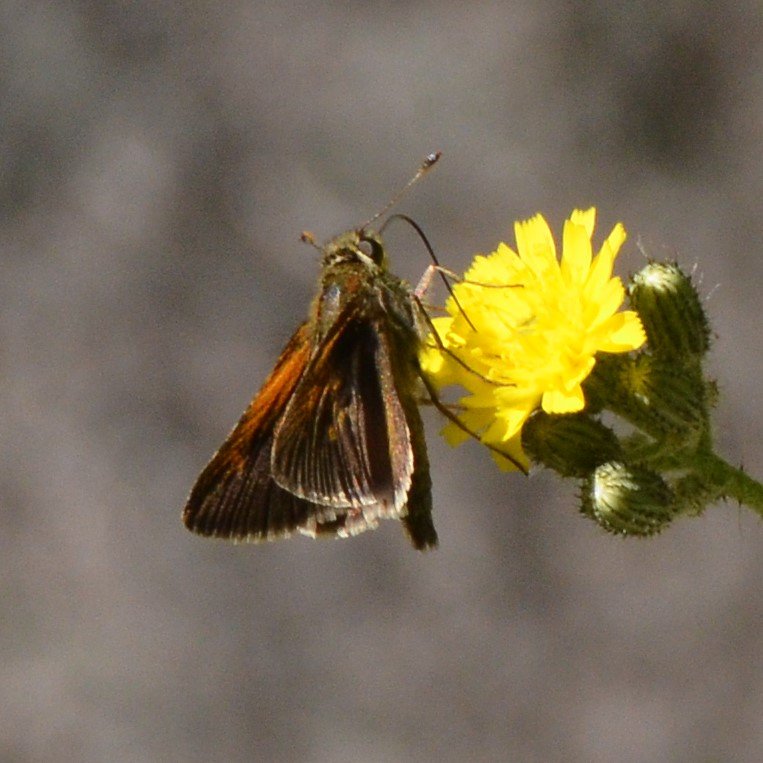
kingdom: Animalia
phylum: Arthropoda
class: Insecta
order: Lepidoptera
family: Hesperiidae
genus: Polites
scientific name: Polites themistocles
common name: Tawny-edged Skipper
